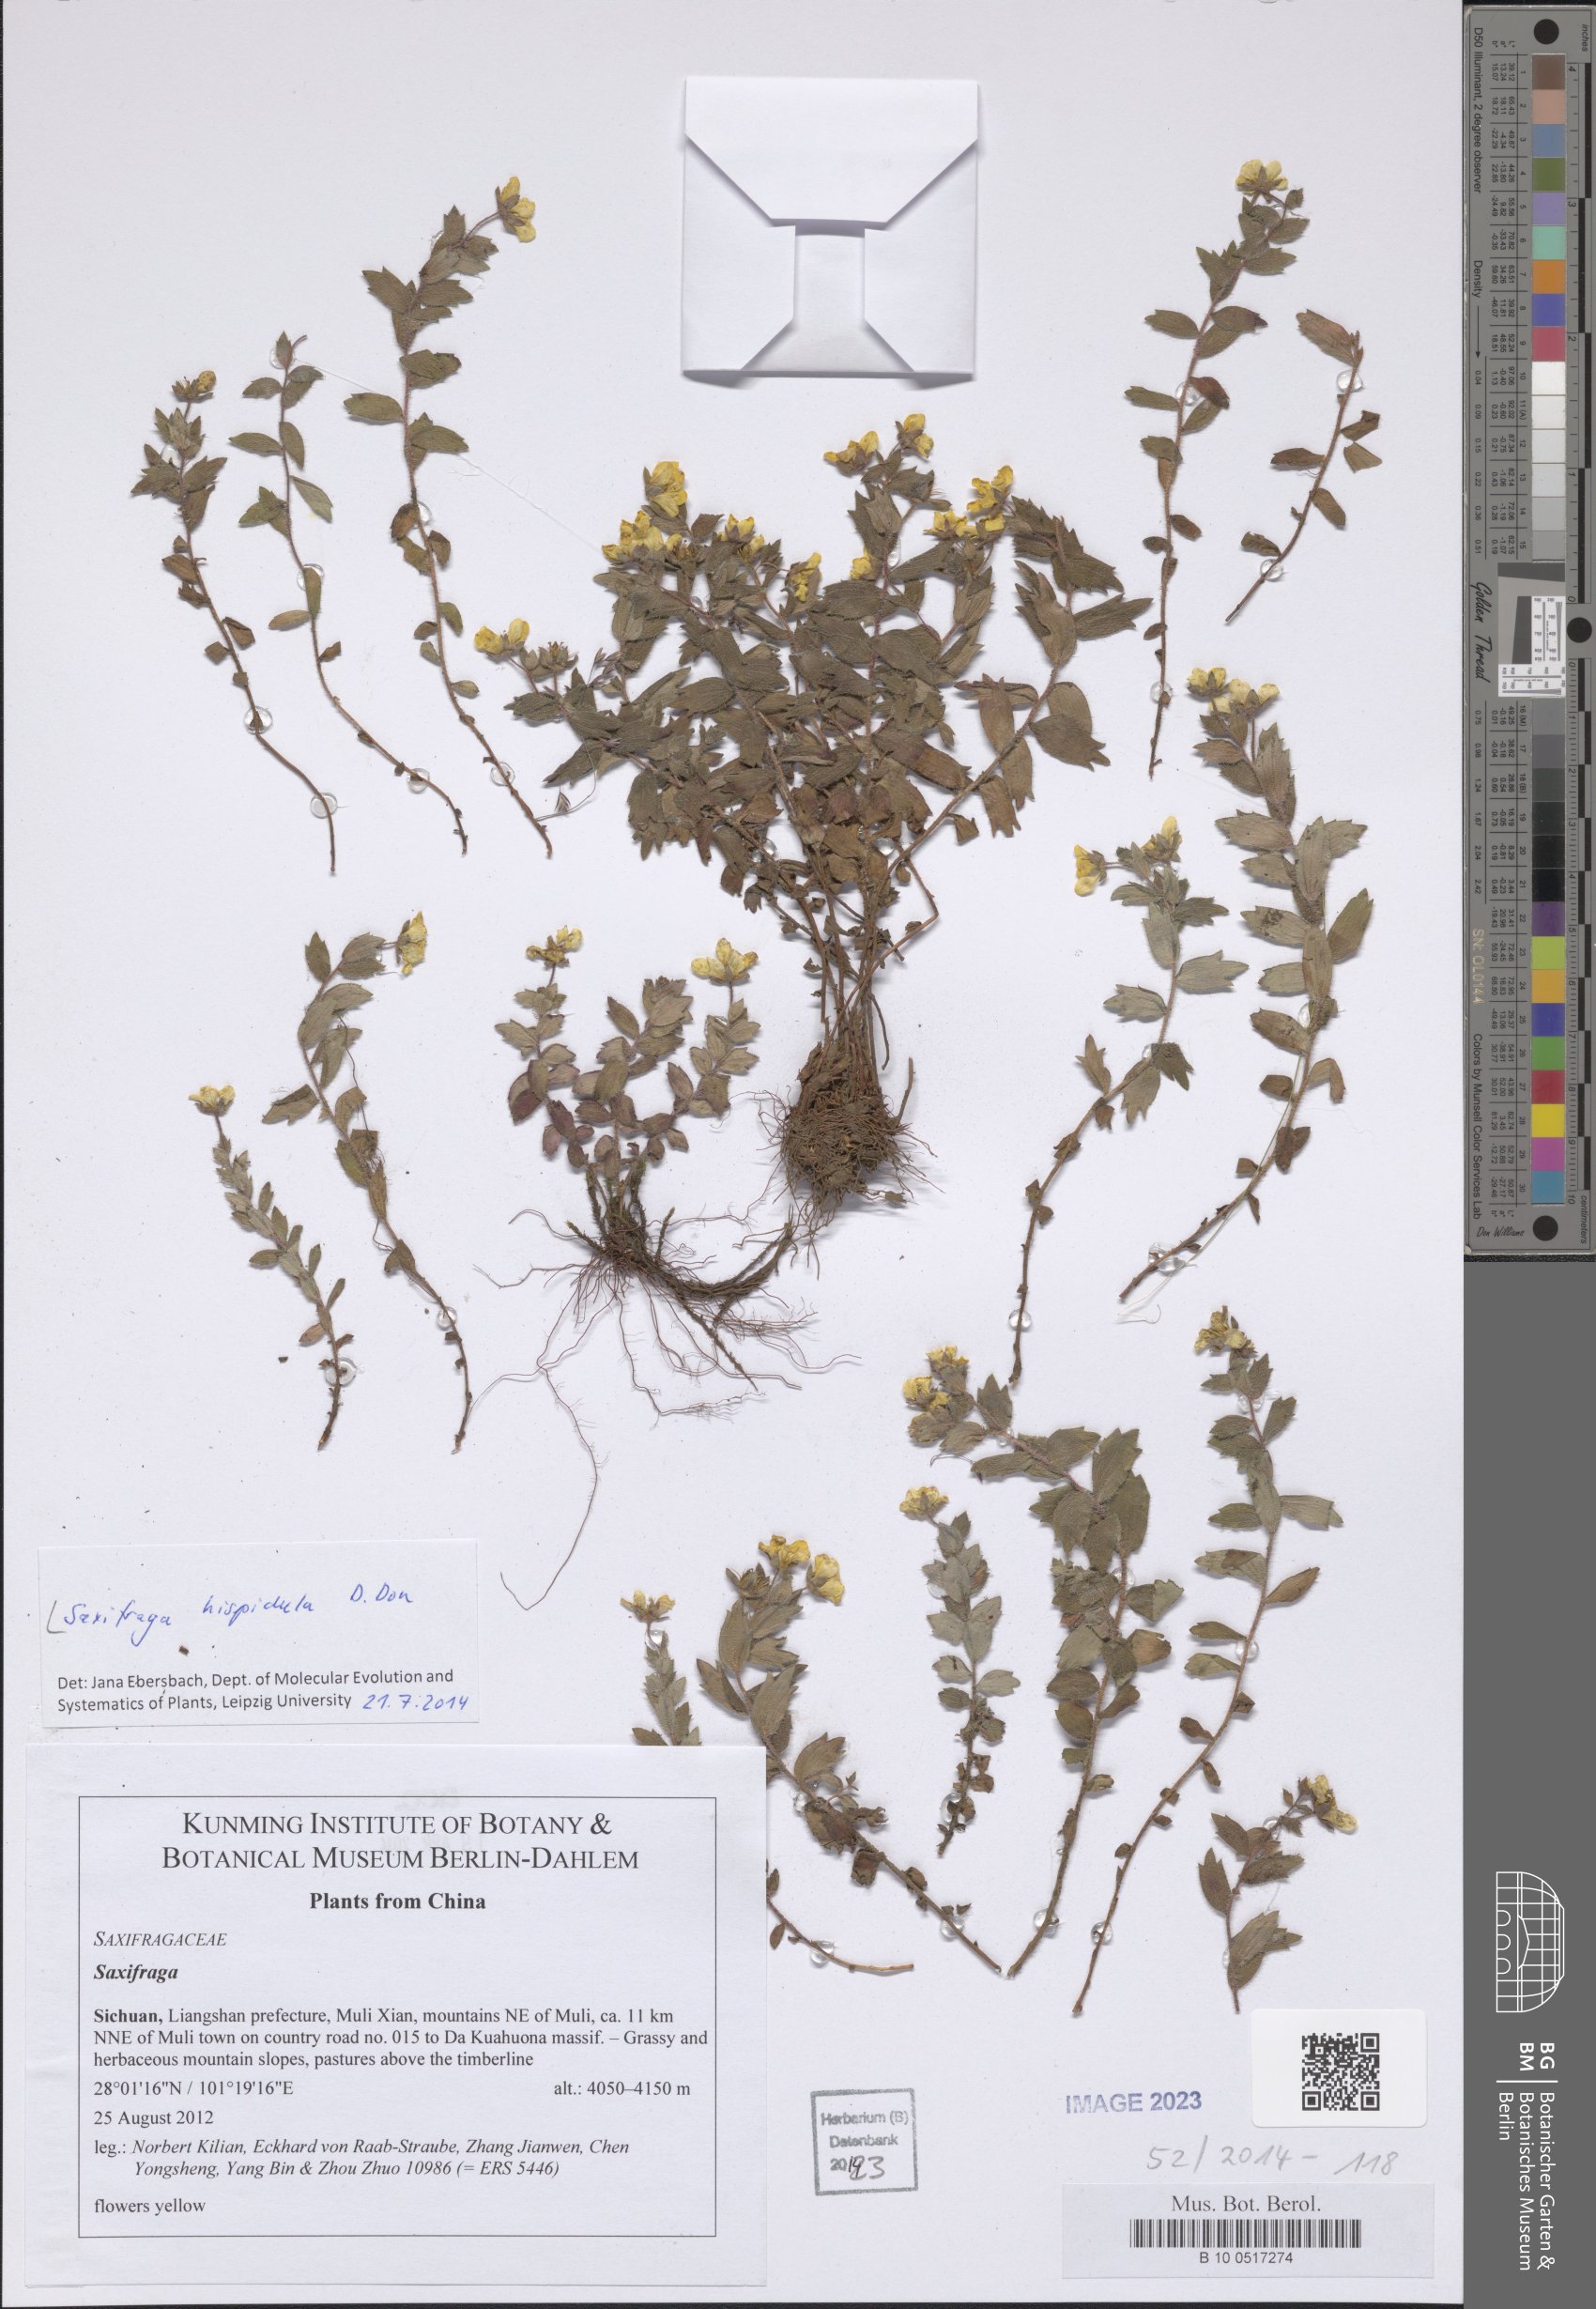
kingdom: Plantae
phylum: Tracheophyta
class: Magnoliopsida
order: Saxifragales
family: Saxifragaceae
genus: Saxifraga
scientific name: Saxifraga hispidula
